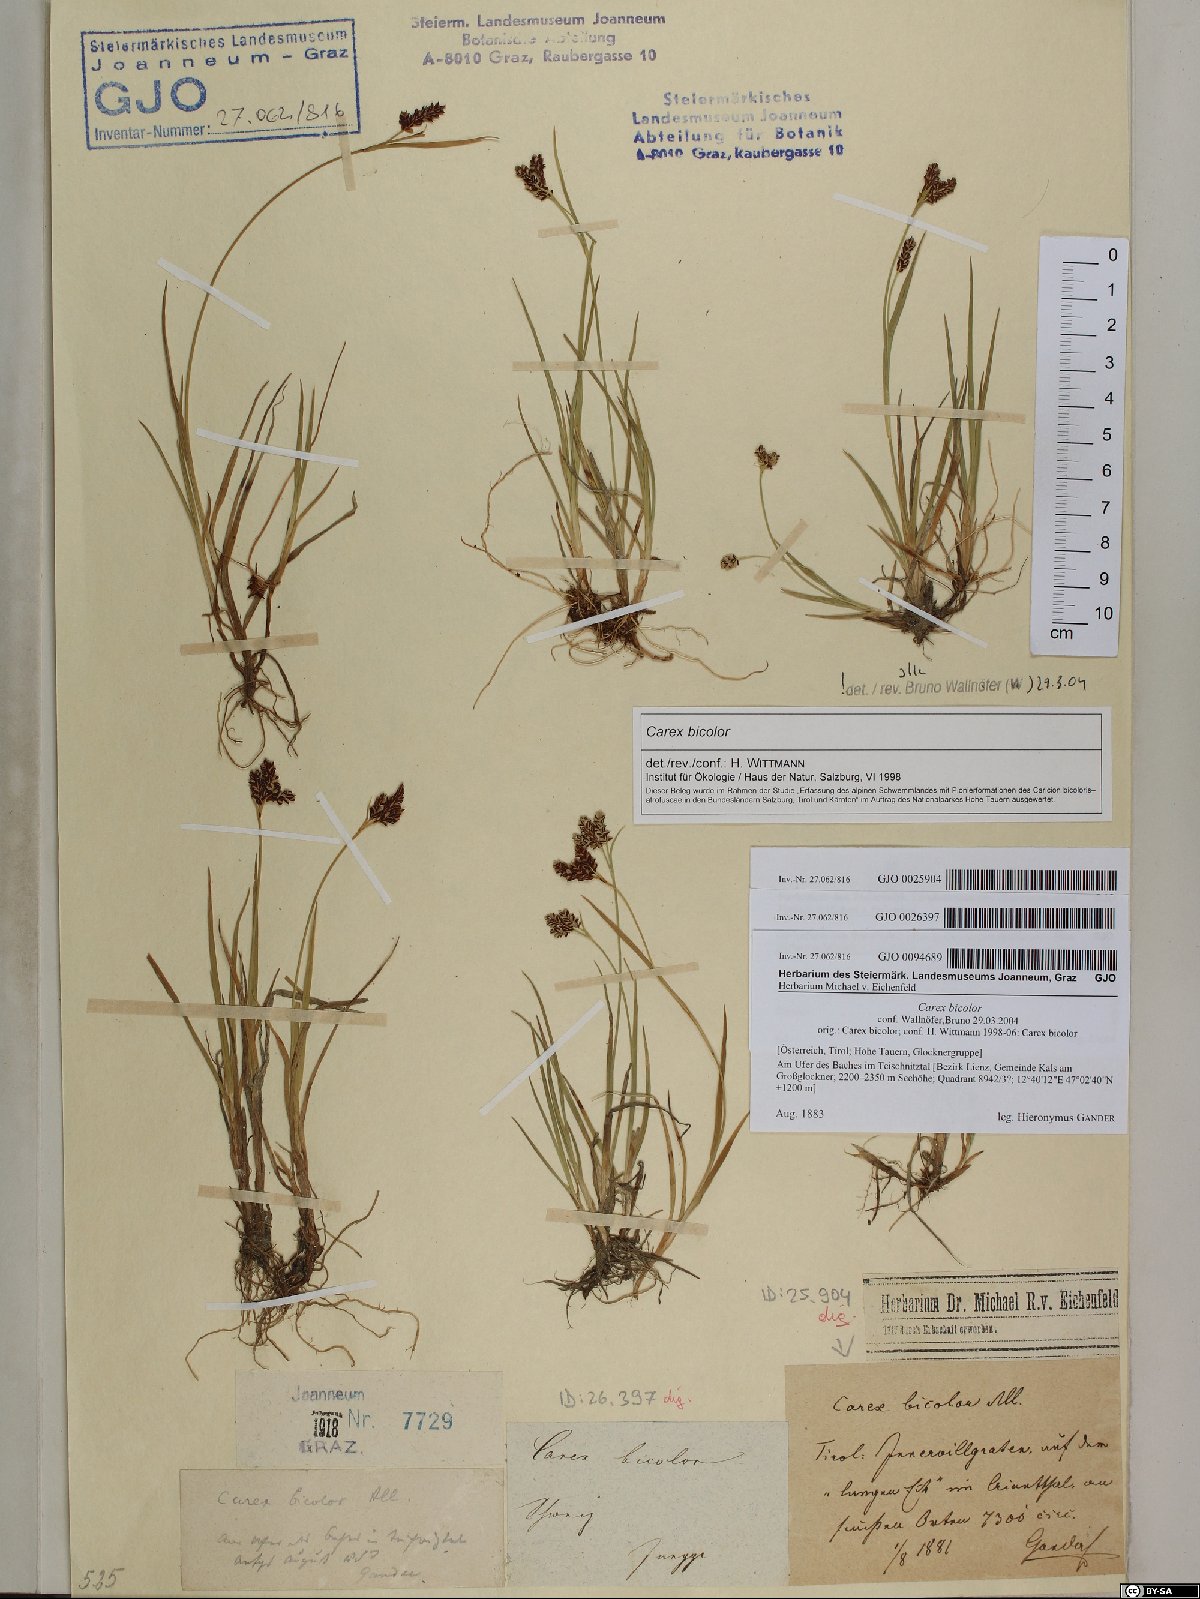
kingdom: Plantae
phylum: Tracheophyta
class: Liliopsida
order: Poales
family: Cyperaceae
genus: Carex
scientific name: Carex bicolor
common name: Bicoloured sedge
